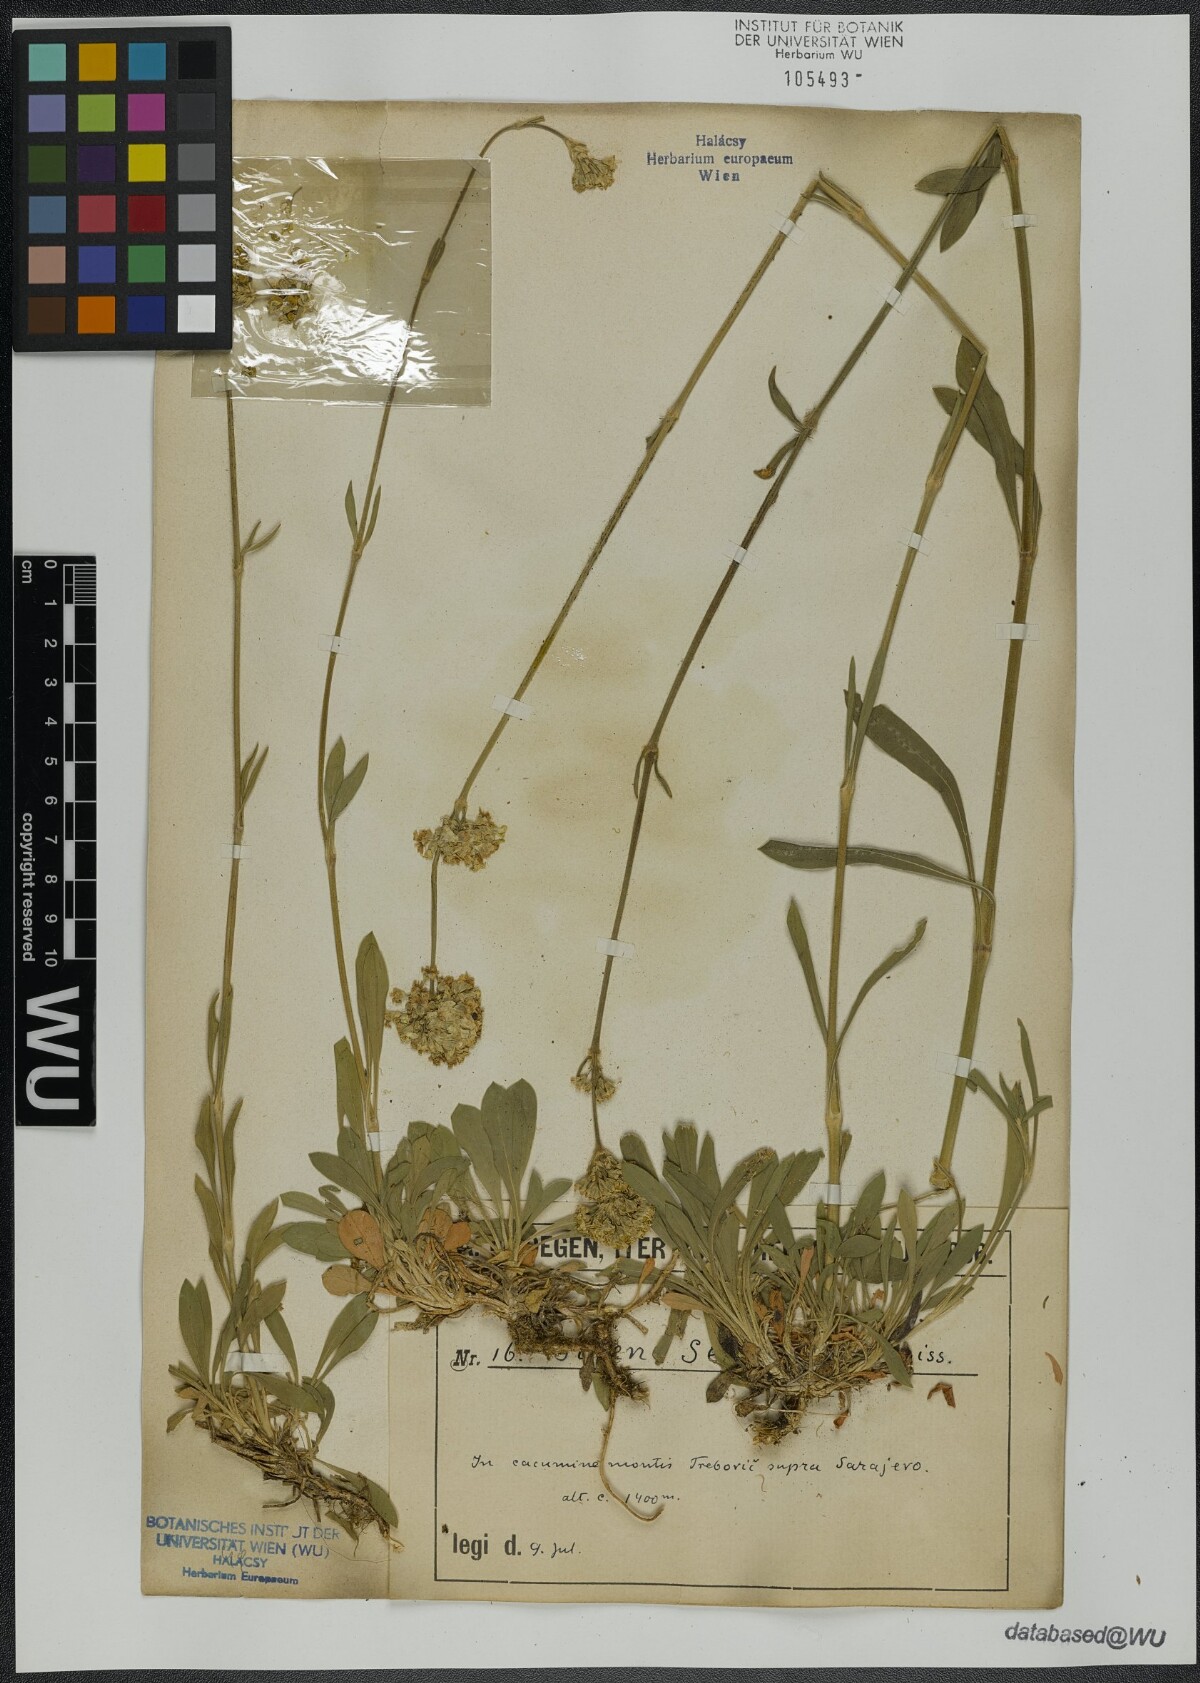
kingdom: Plantae
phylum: Tracheophyta
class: Magnoliopsida
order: Caryophyllales
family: Caryophyllaceae
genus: Silene
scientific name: Silene sendtneri
